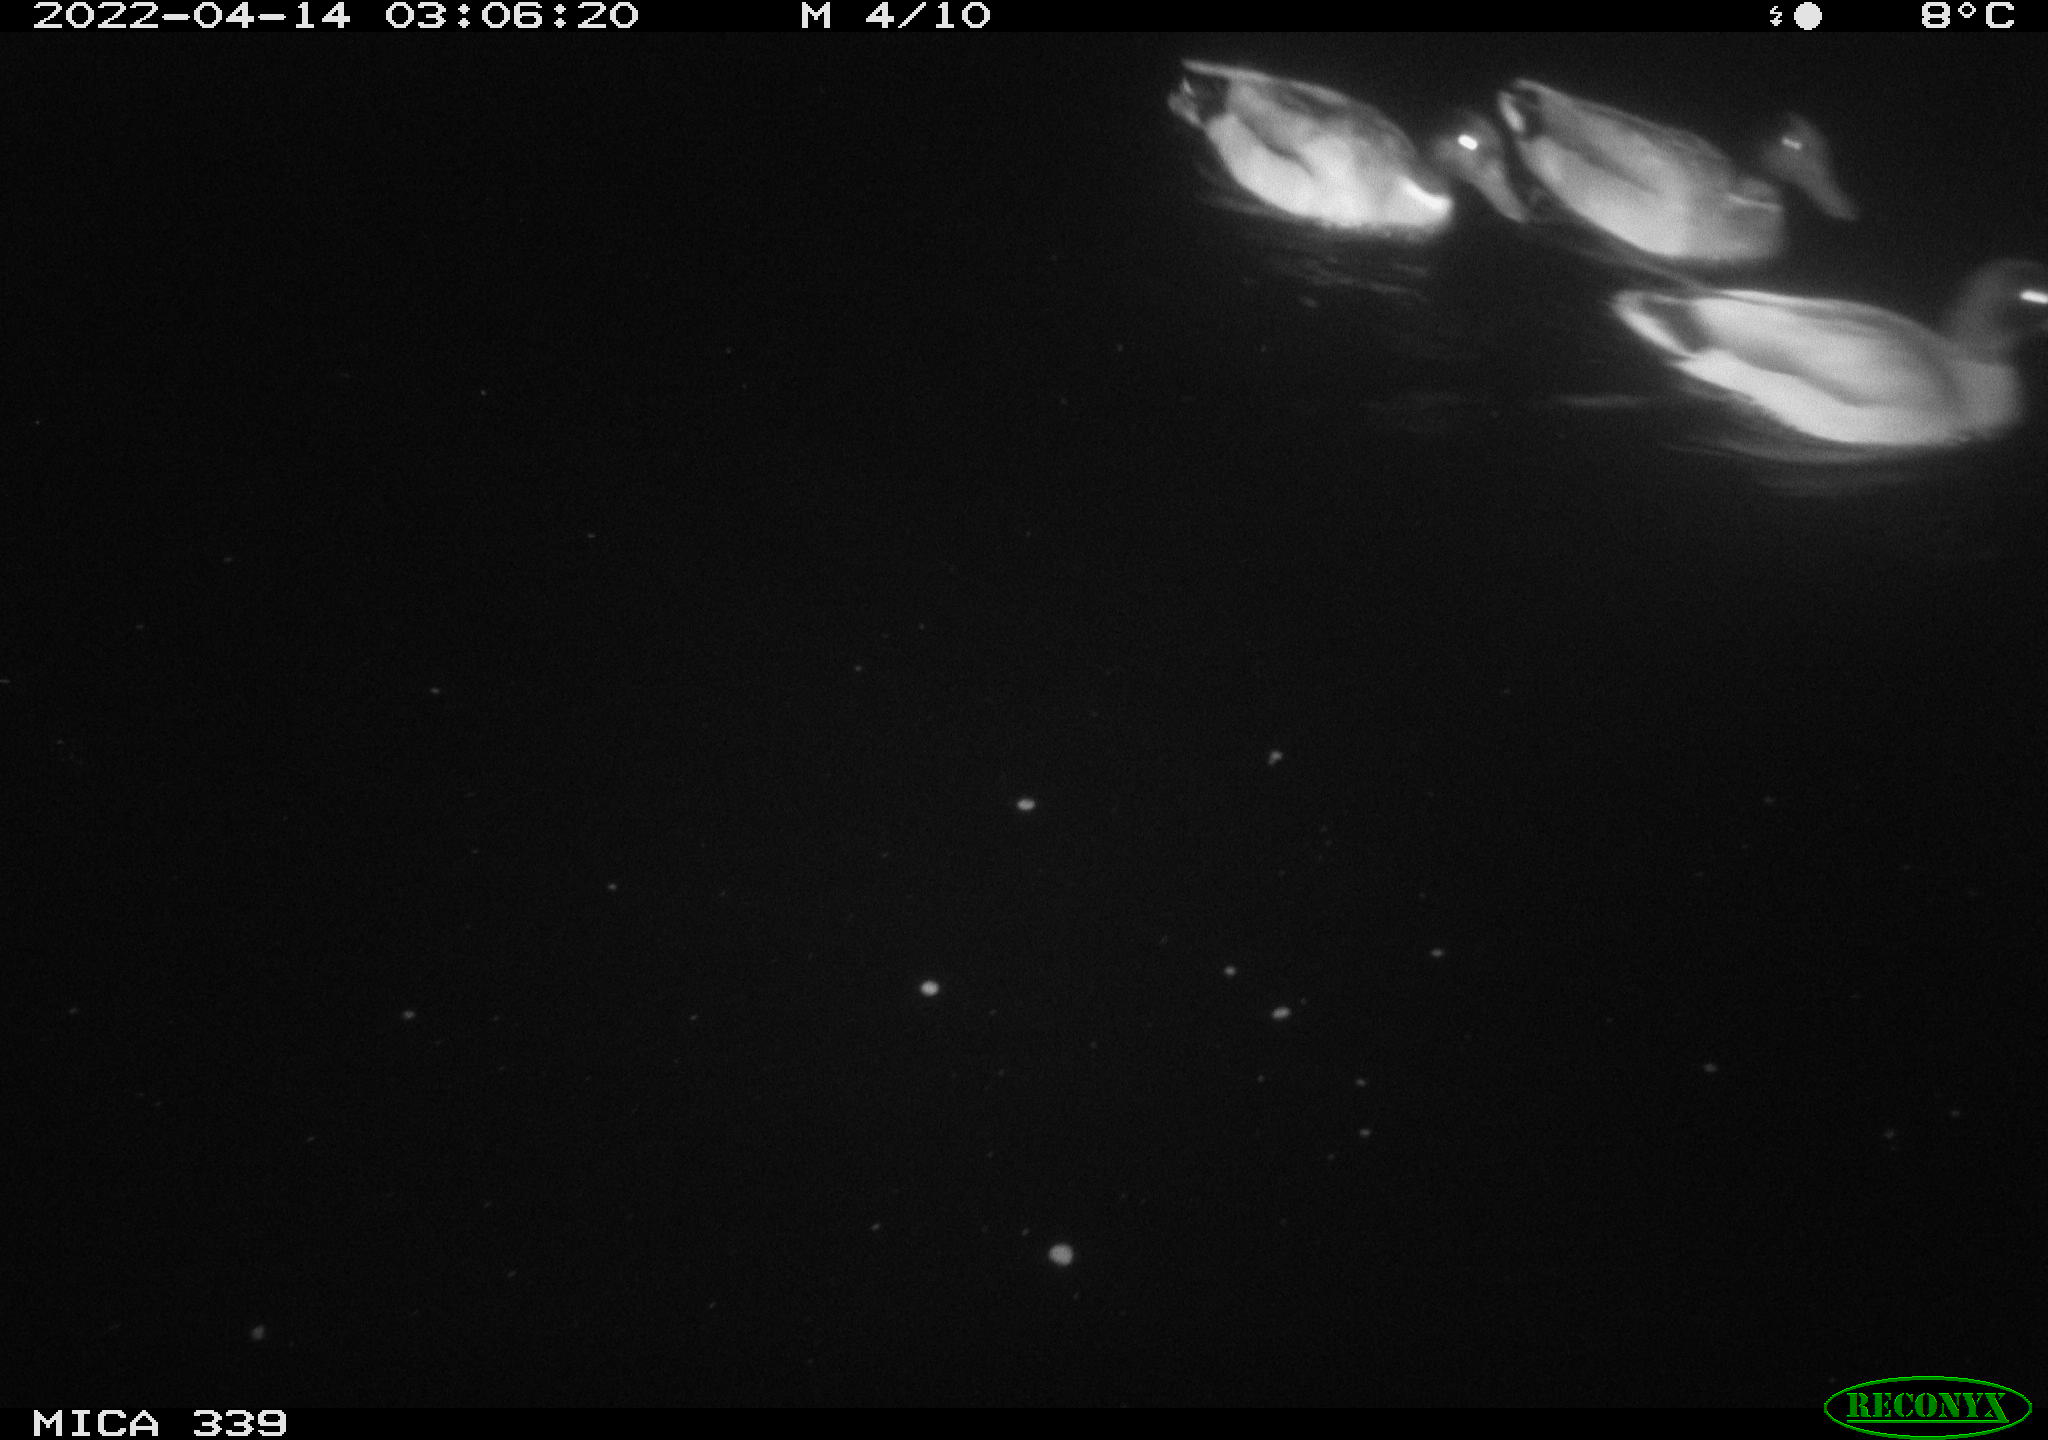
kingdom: Animalia
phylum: Chordata
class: Aves
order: Anseriformes
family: Anatidae
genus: Anas
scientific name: Anas platyrhynchos
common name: Mallard
